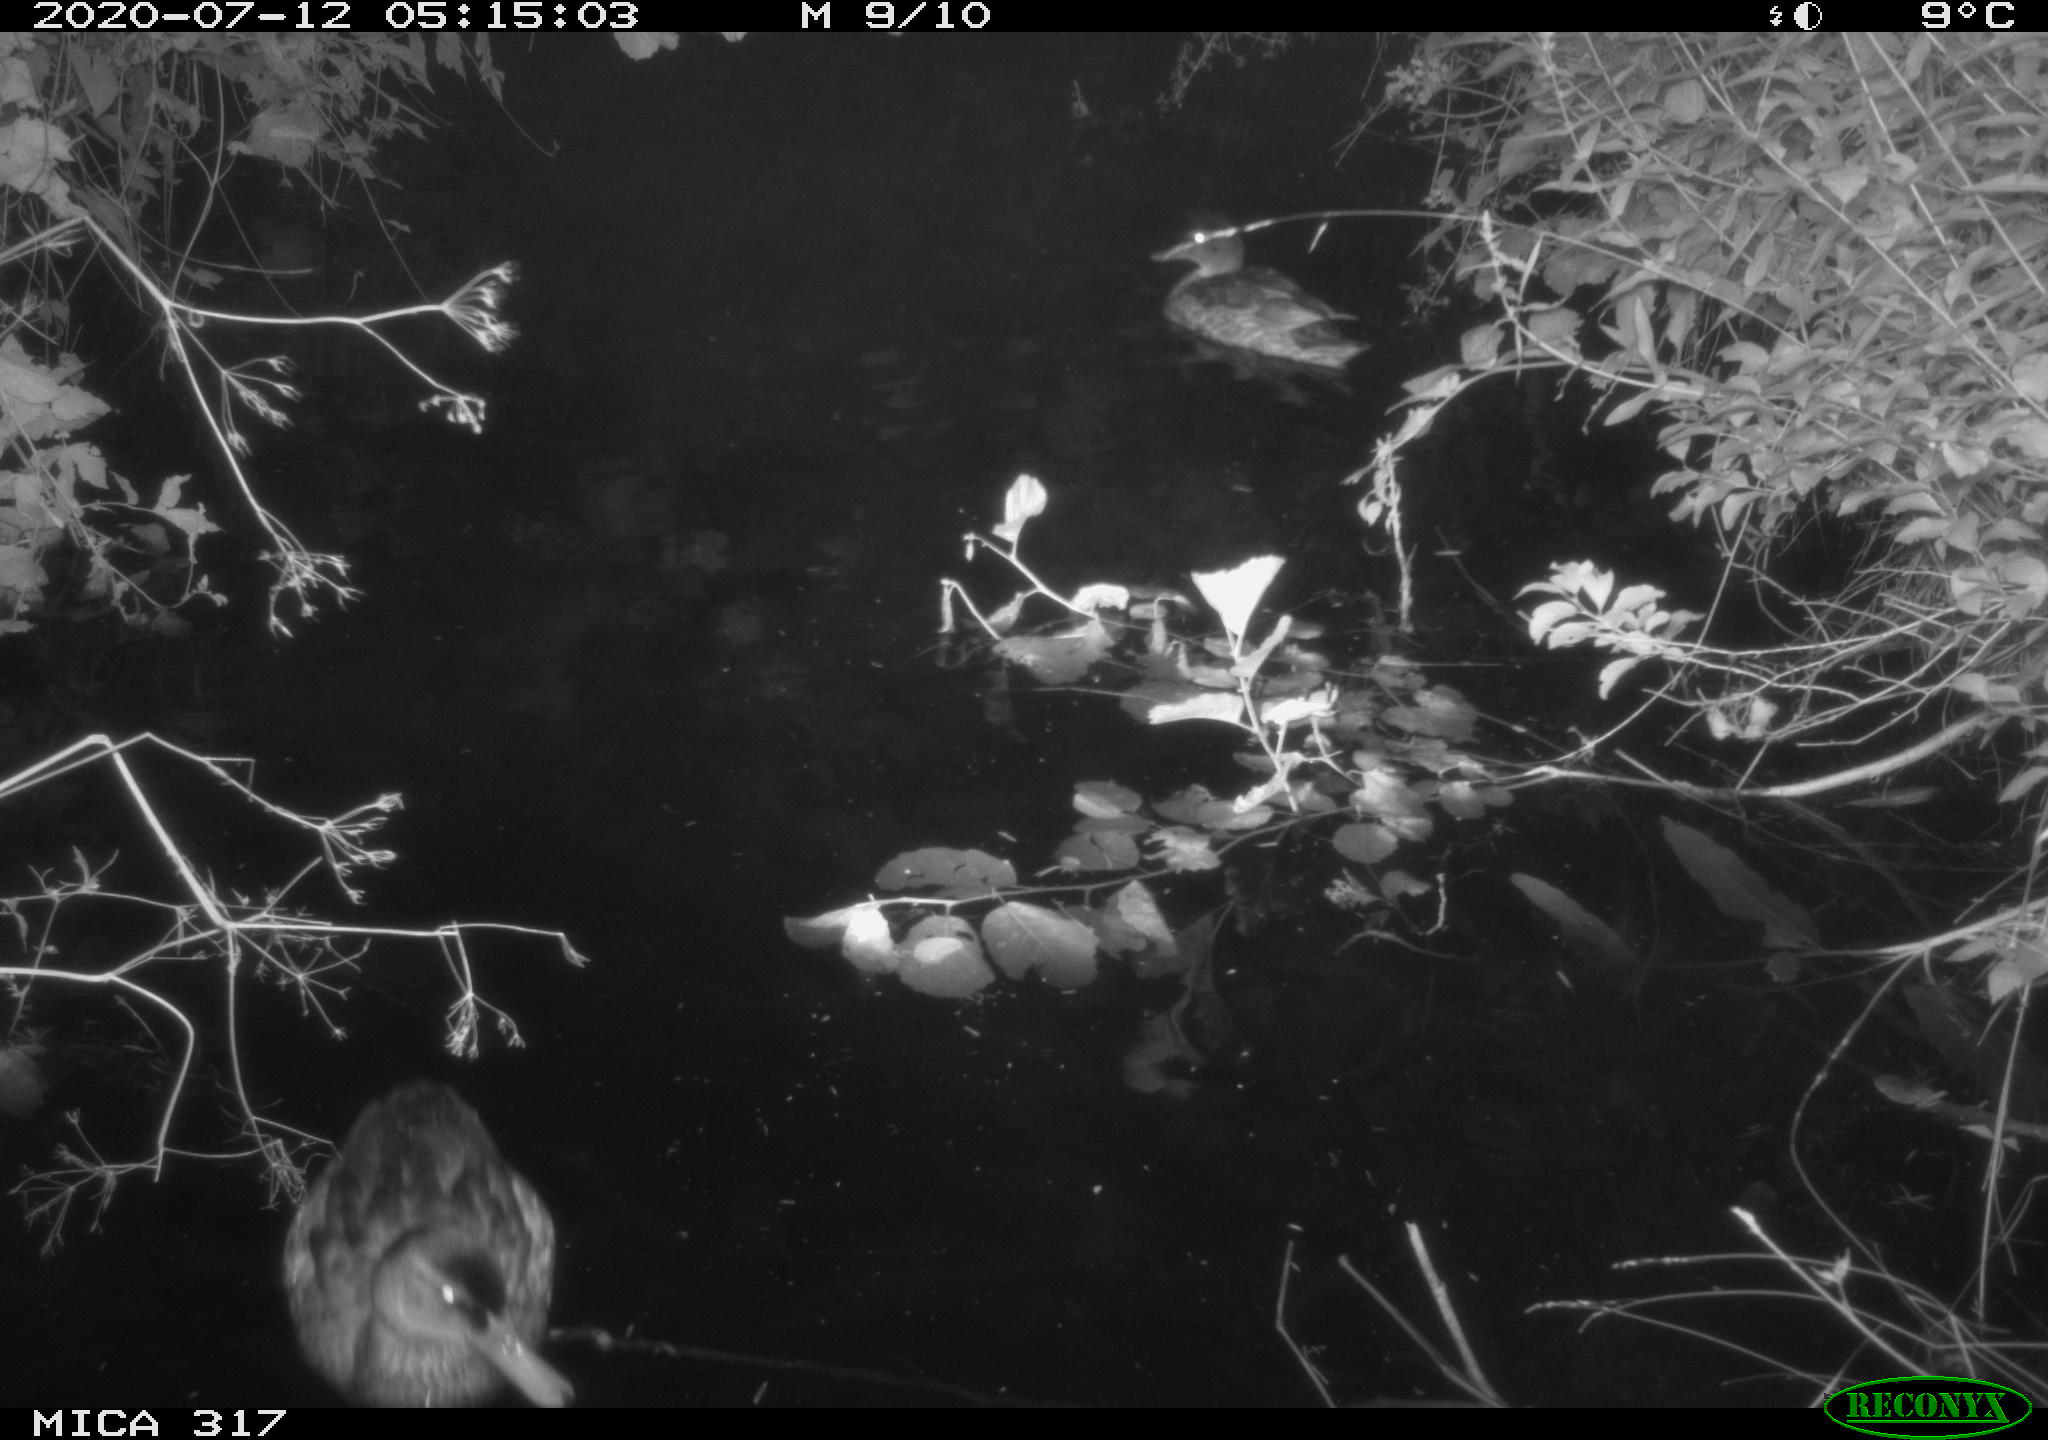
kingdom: Animalia
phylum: Chordata
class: Aves
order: Anseriformes
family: Anatidae
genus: Anas
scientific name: Anas platyrhynchos
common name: Mallard
